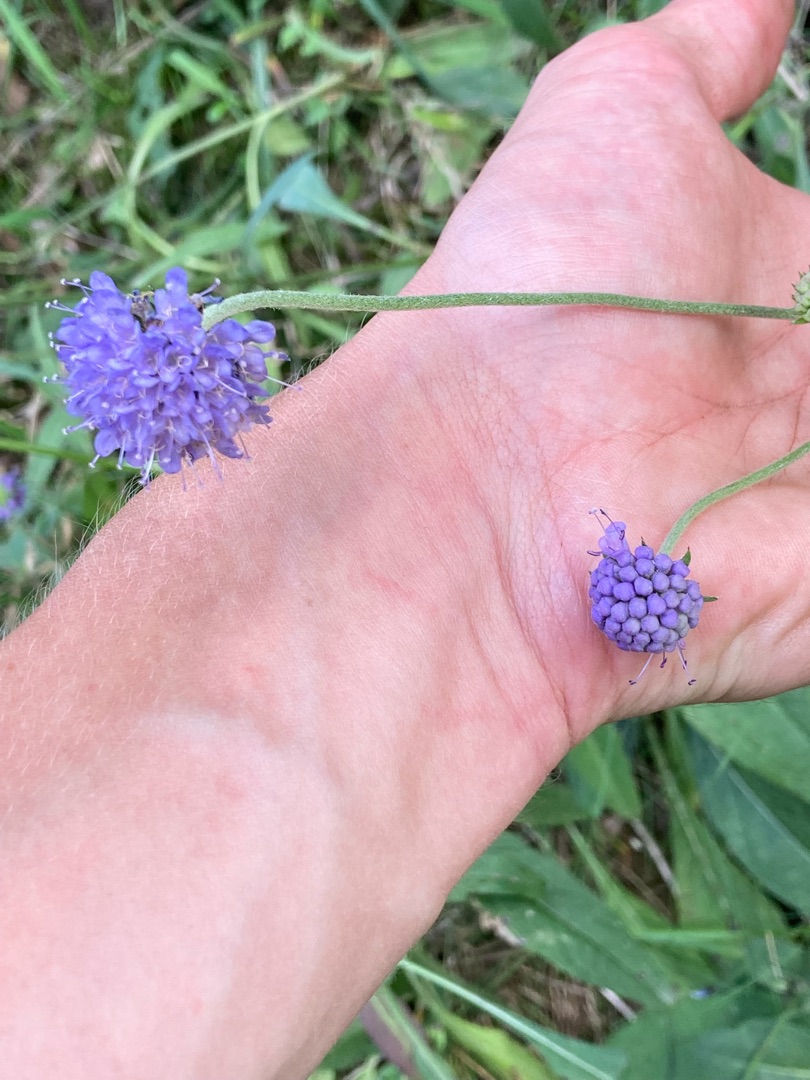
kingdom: Plantae
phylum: Tracheophyta
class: Magnoliopsida
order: Dipsacales
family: Caprifoliaceae
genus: Succisa
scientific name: Succisa pratensis
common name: Djævelsbid
